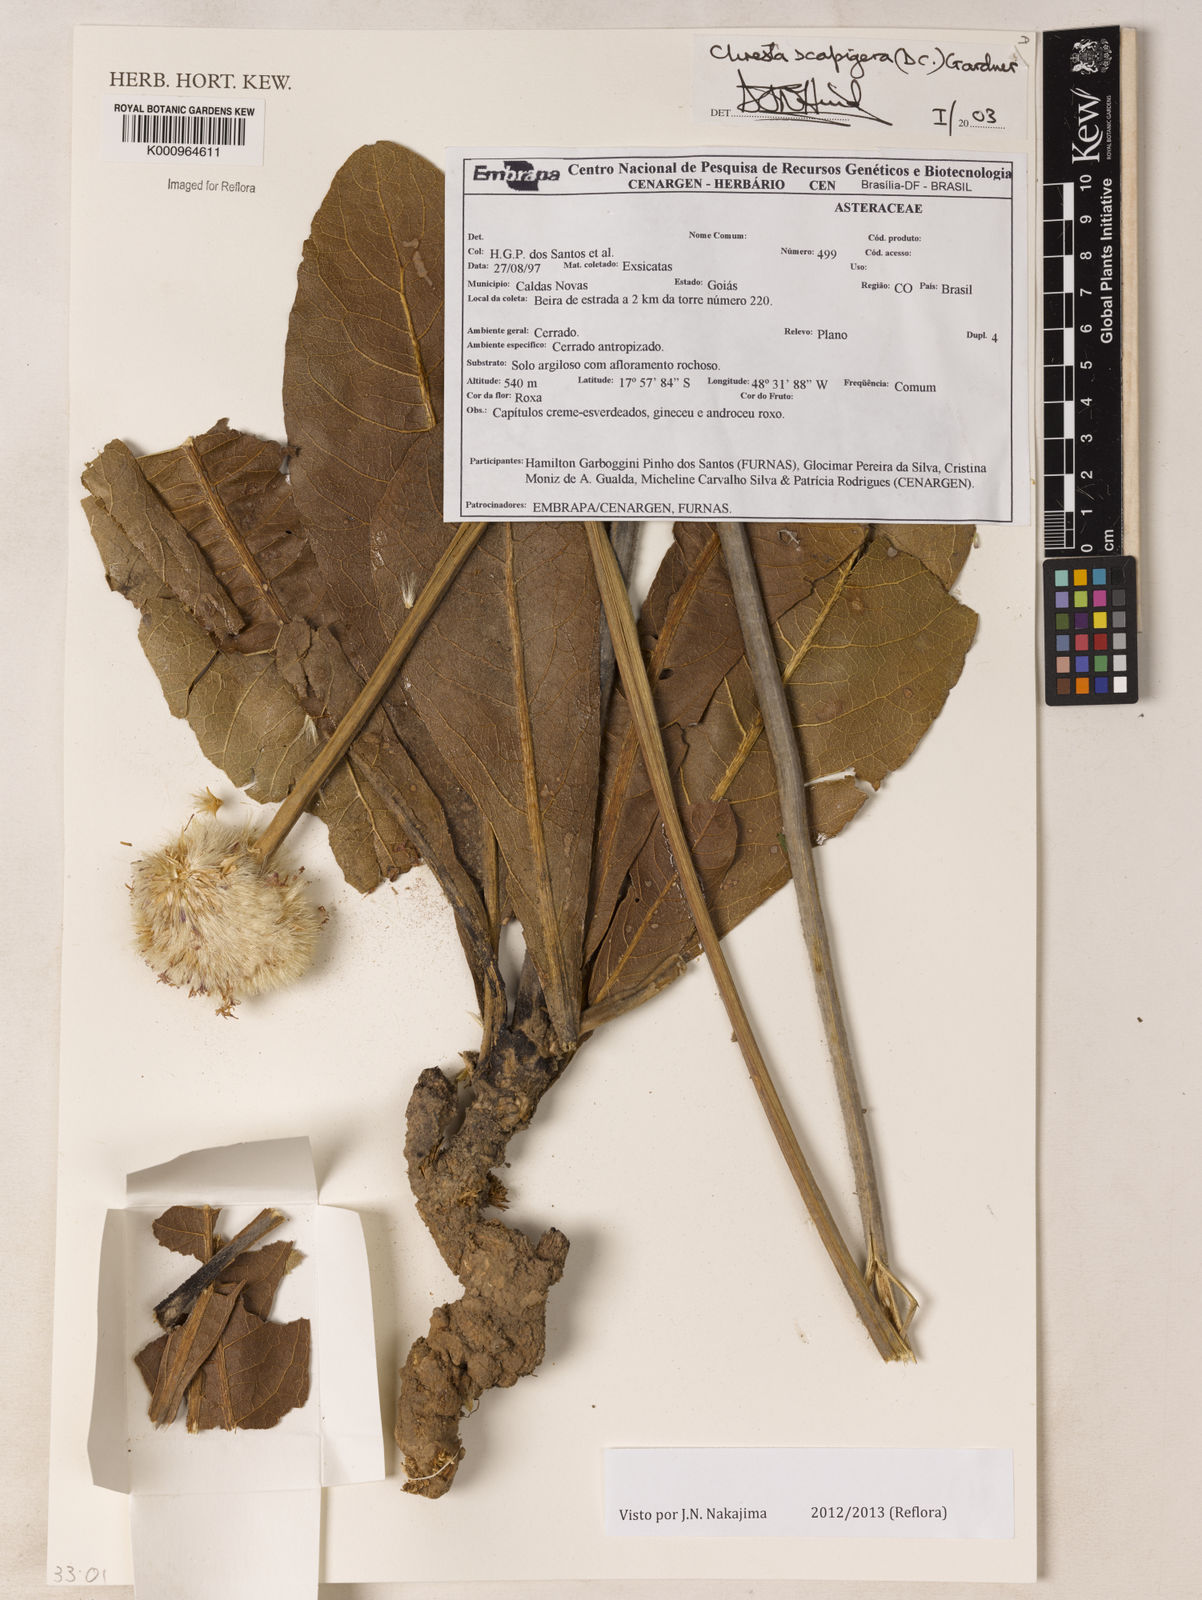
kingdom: Plantae
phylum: Tracheophyta
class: Magnoliopsida
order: Asterales
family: Asteraceae
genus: Chresta
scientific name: Chresta scapigera
